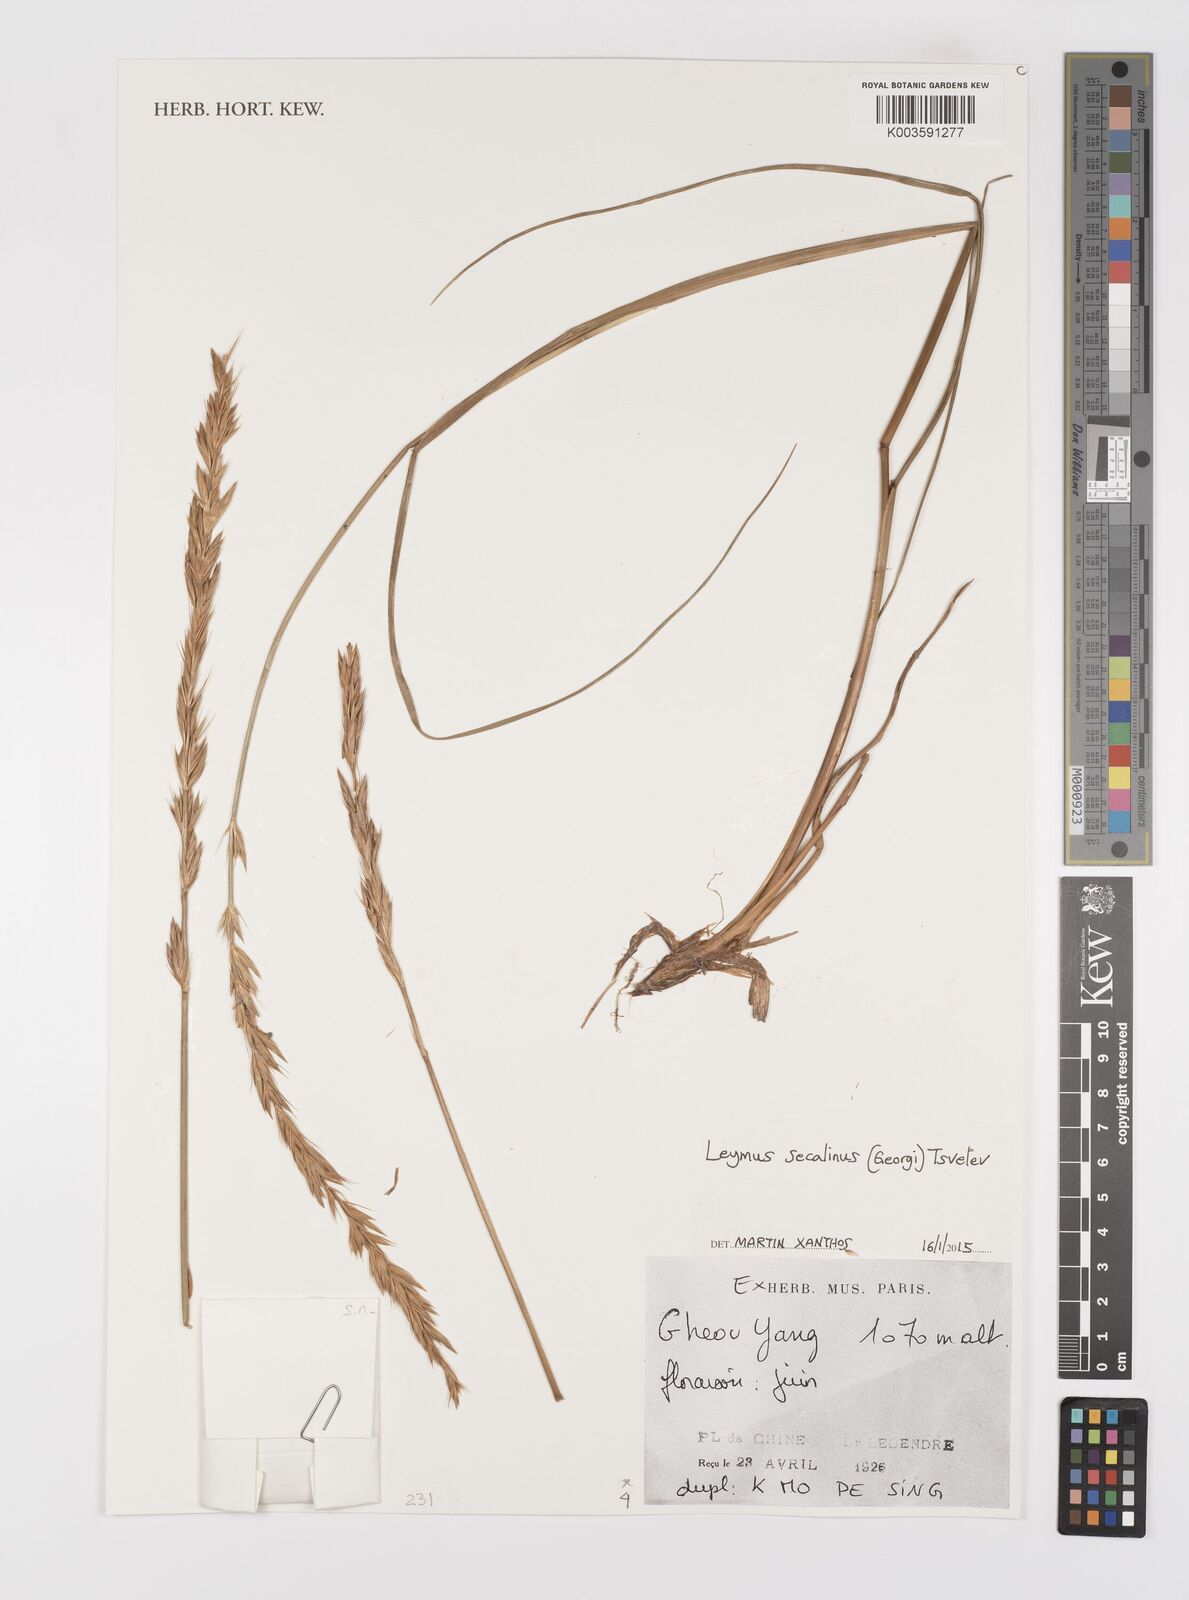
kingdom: Plantae
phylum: Tracheophyta
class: Liliopsida
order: Poales
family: Poaceae
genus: Leymus
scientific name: Leymus secalinus
